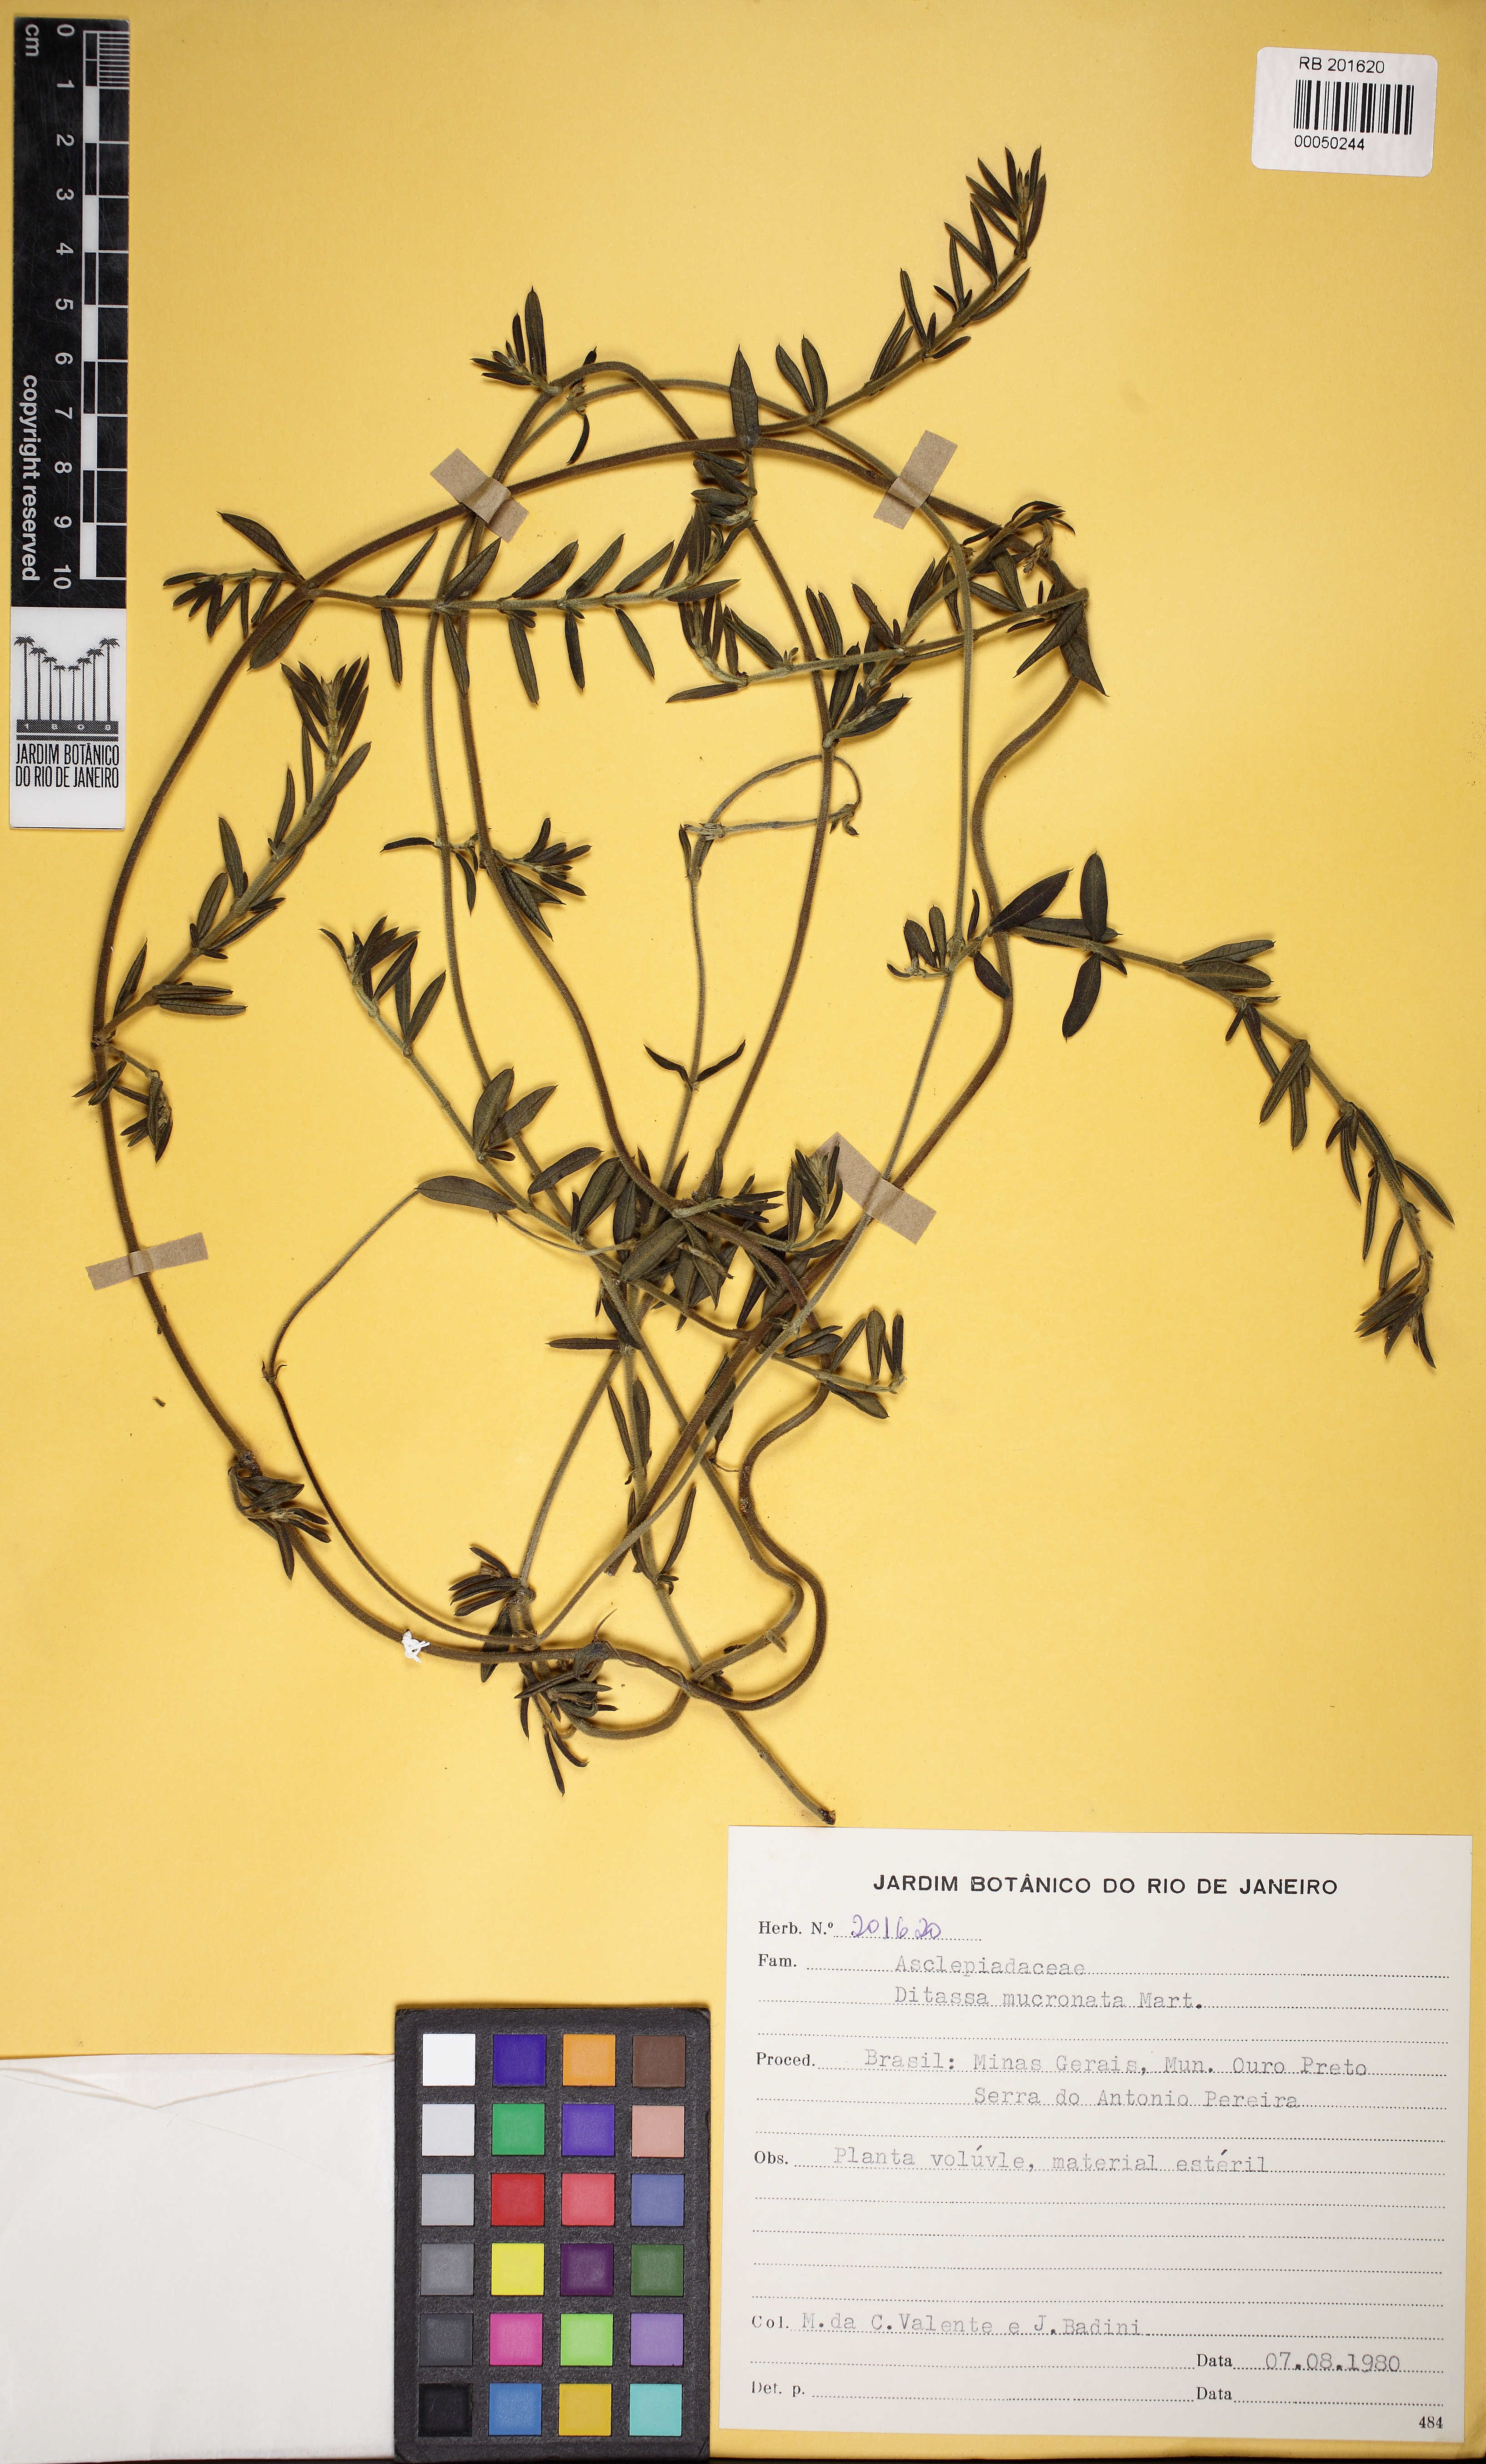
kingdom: Plantae
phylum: Tracheophyta
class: Magnoliopsida
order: Gentianales
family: Apocynaceae
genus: Ditassa
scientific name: Ditassa mucronata
